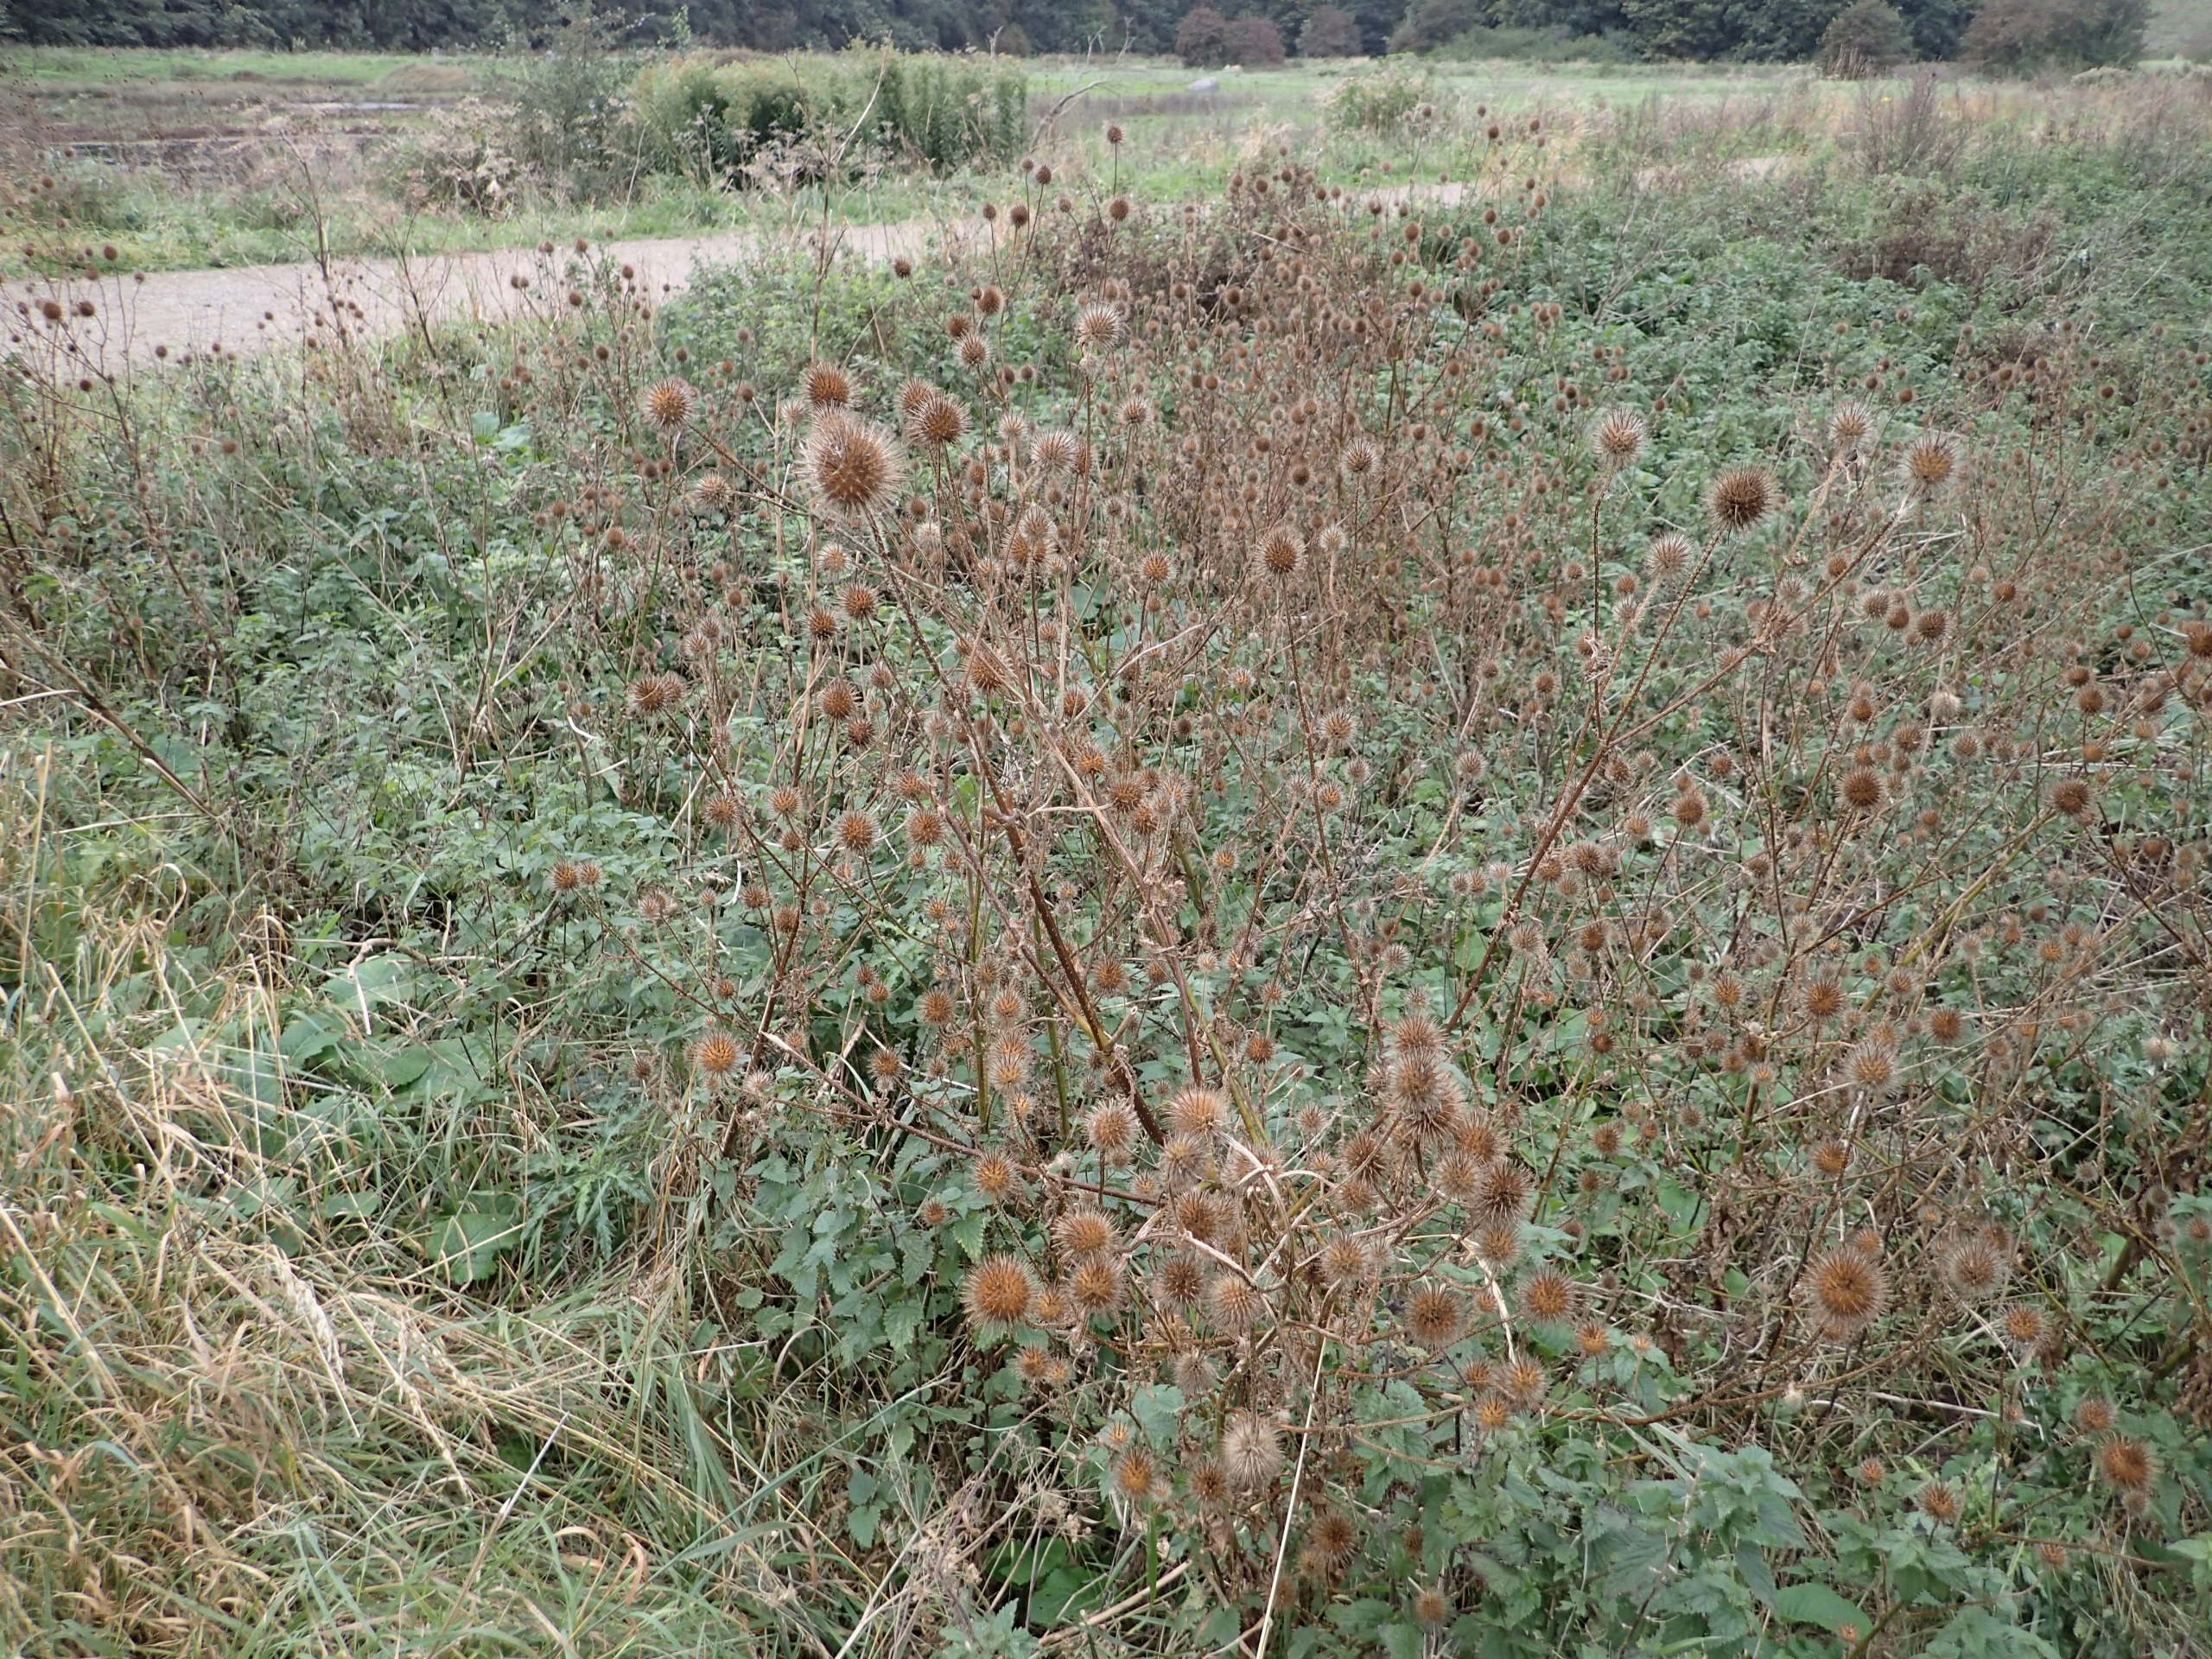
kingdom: Plantae
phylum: Tracheophyta
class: Magnoliopsida
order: Dipsacales
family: Caprifoliaceae
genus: Dipsacus
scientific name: Dipsacus strigosus
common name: Pindsvin-kartebolle
